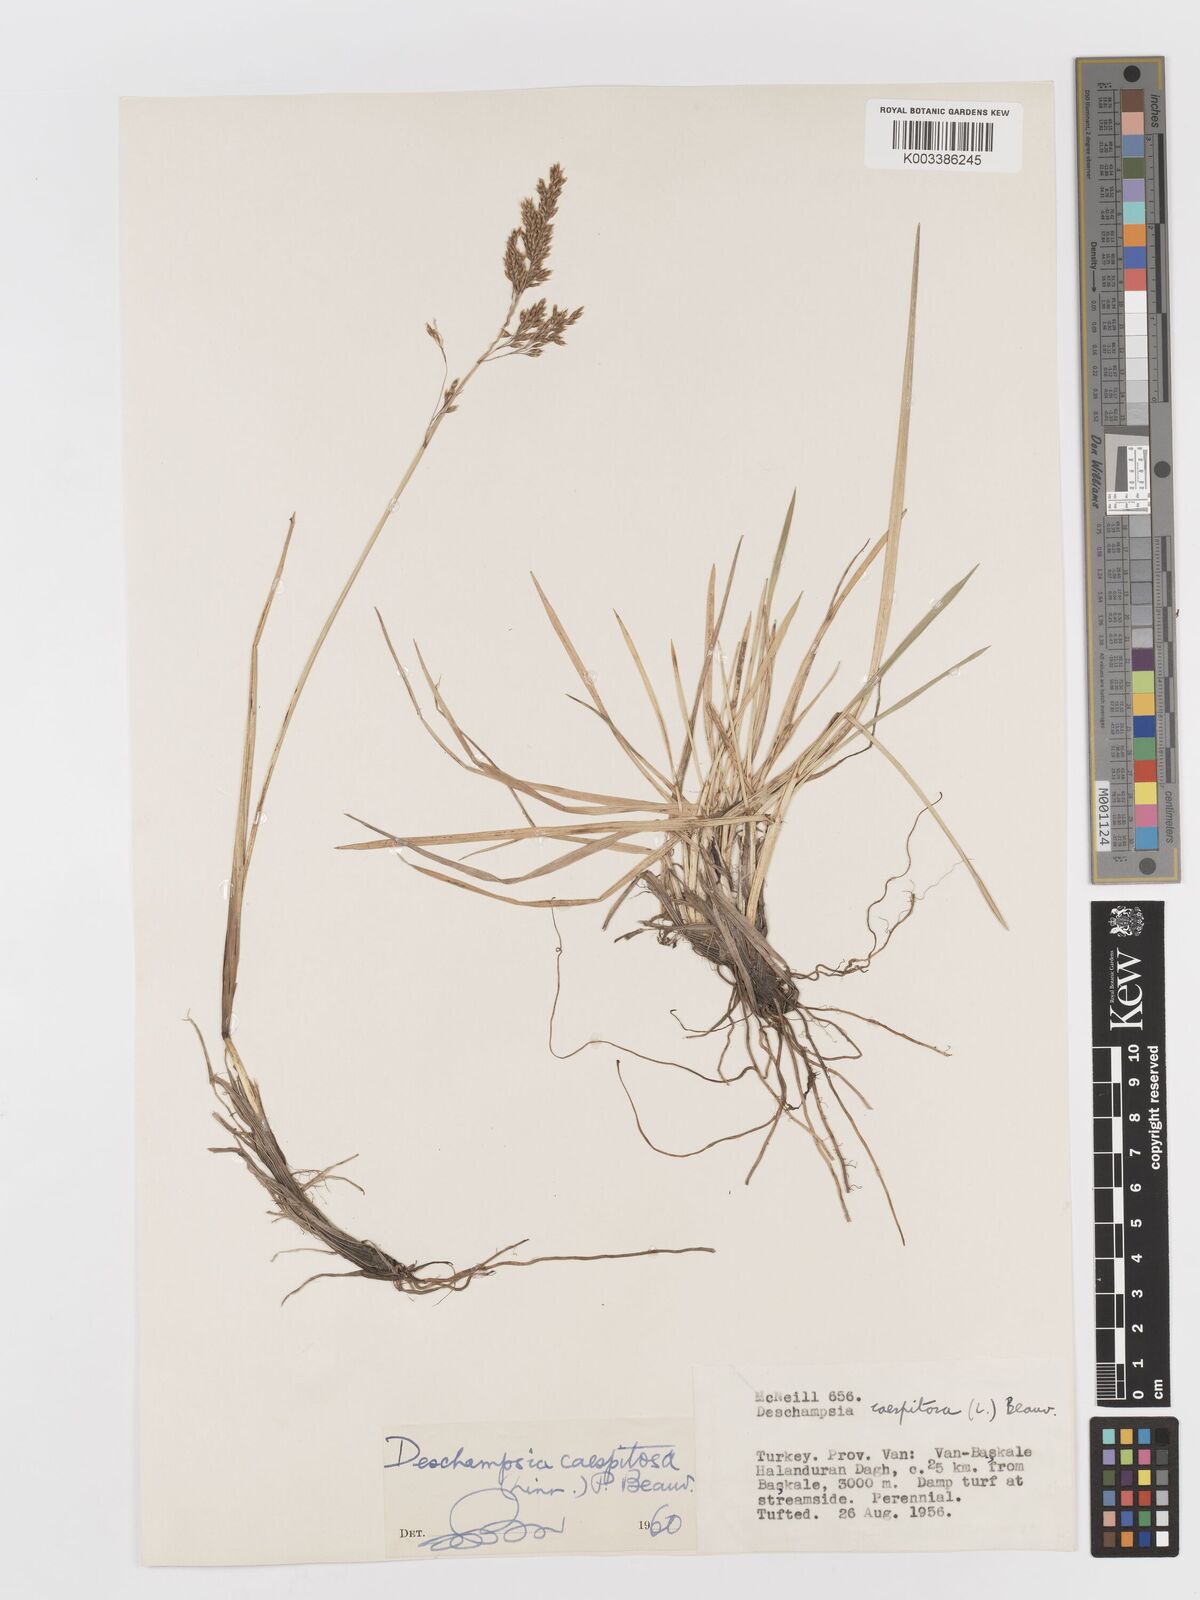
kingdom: Plantae
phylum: Tracheophyta
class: Liliopsida
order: Poales
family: Poaceae
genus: Deschampsia
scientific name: Deschampsia cespitosa
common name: Tufted hair-grass
